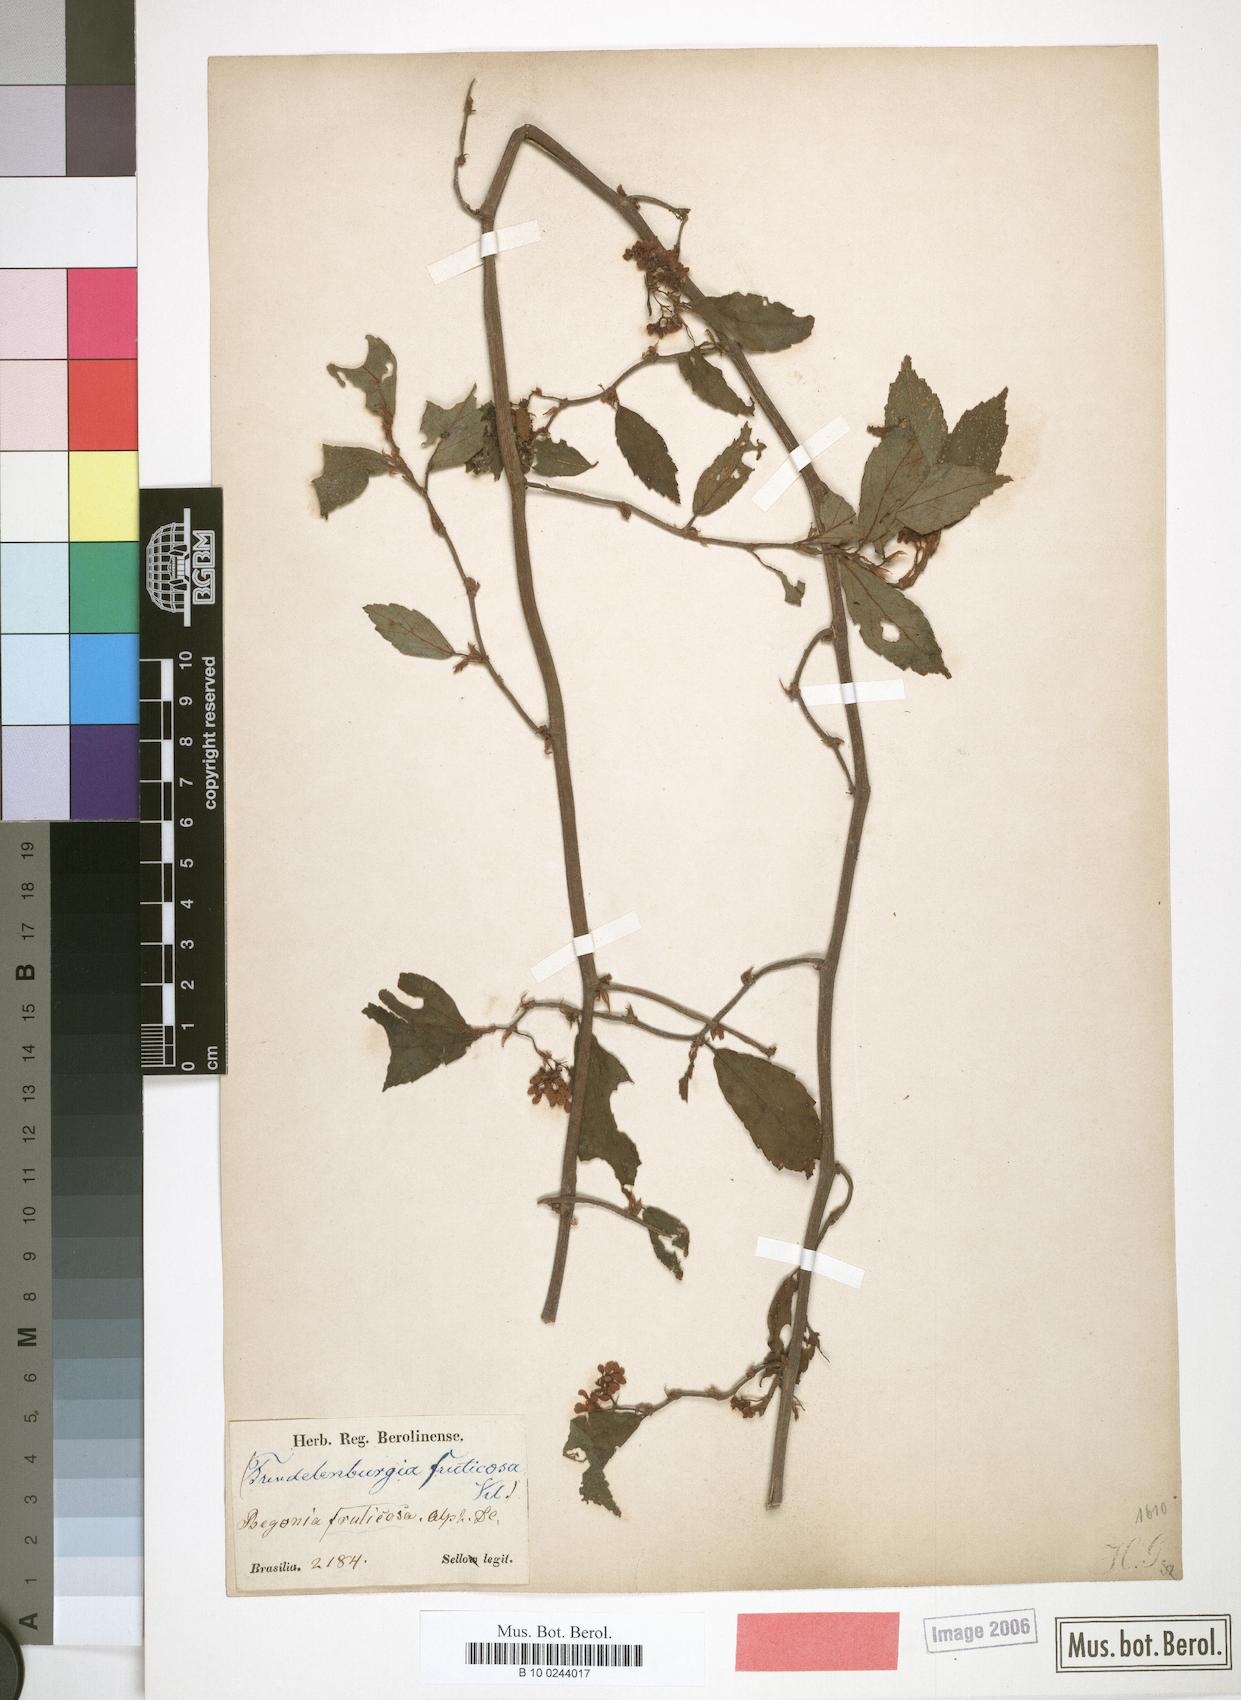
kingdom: Plantae
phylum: Tracheophyta
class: Magnoliopsida
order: Cucurbitales
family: Begoniaceae
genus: Begonia
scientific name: Begonia fruticosa
